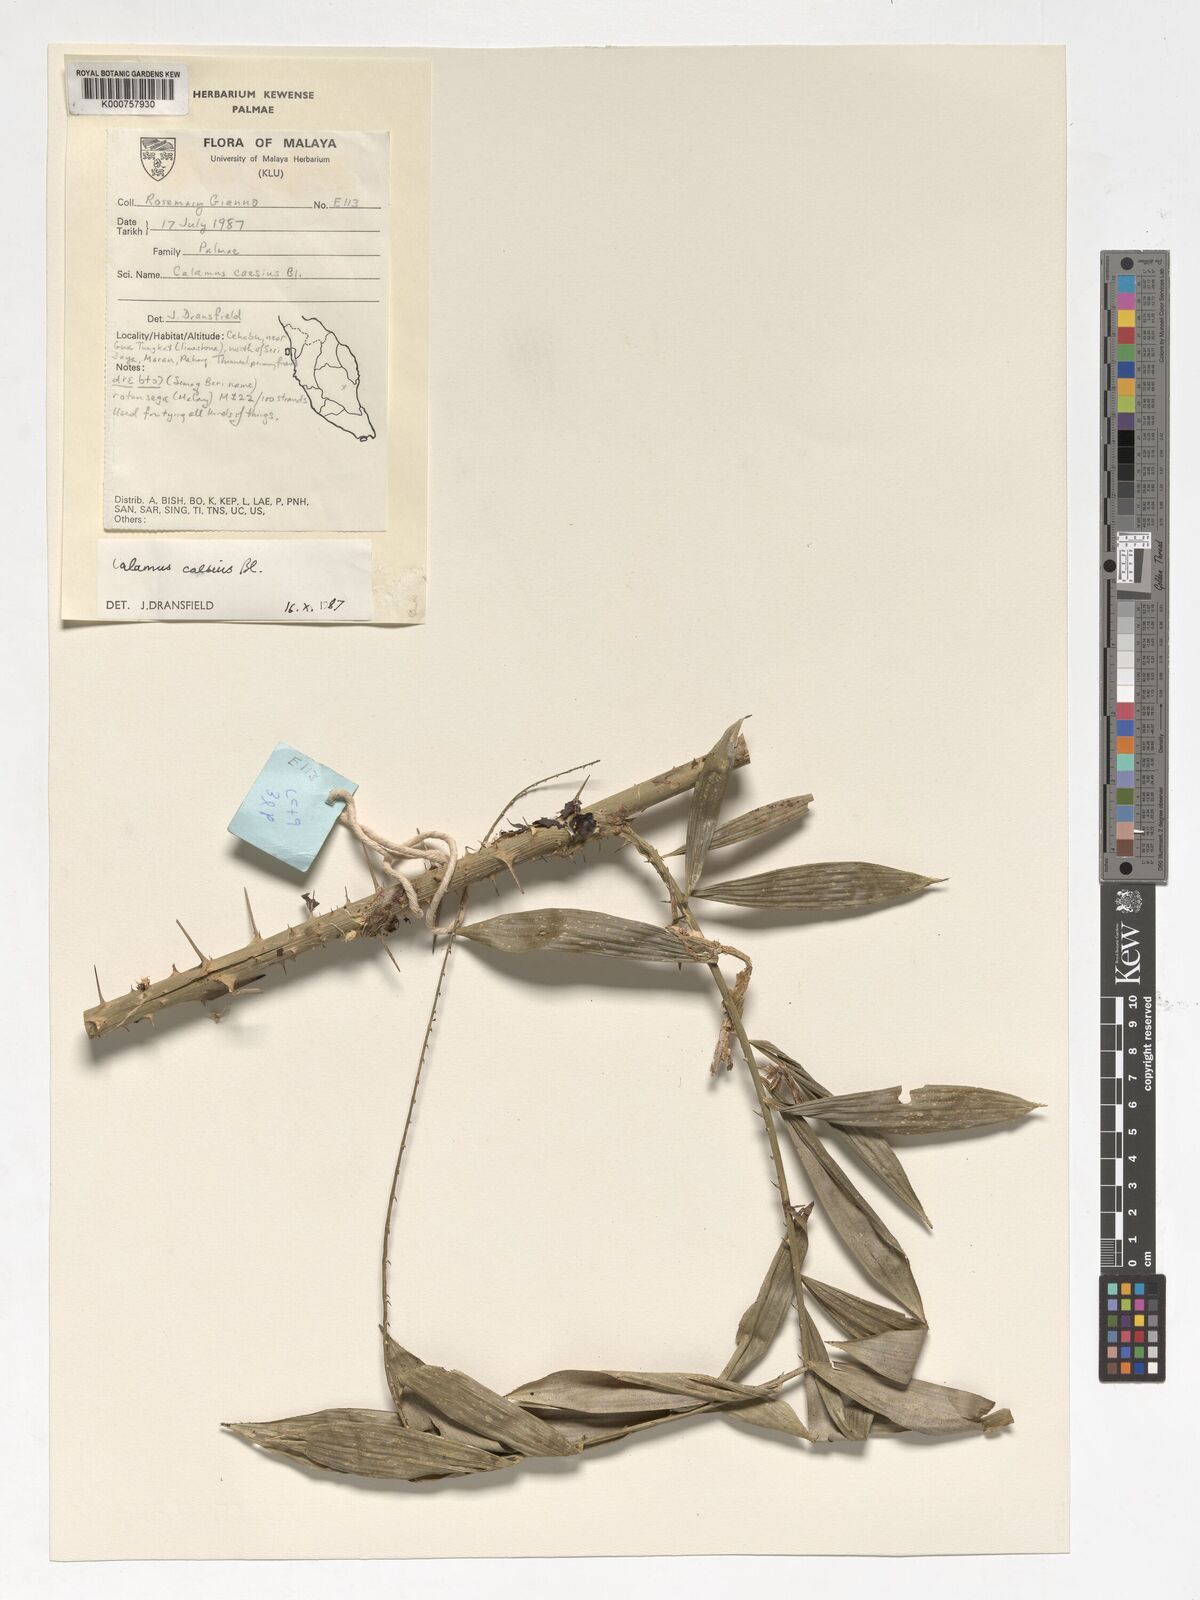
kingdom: Plantae
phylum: Tracheophyta
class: Liliopsida
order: Arecales
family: Arecaceae
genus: Calamus
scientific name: Calamus caesius
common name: Rattan palm
